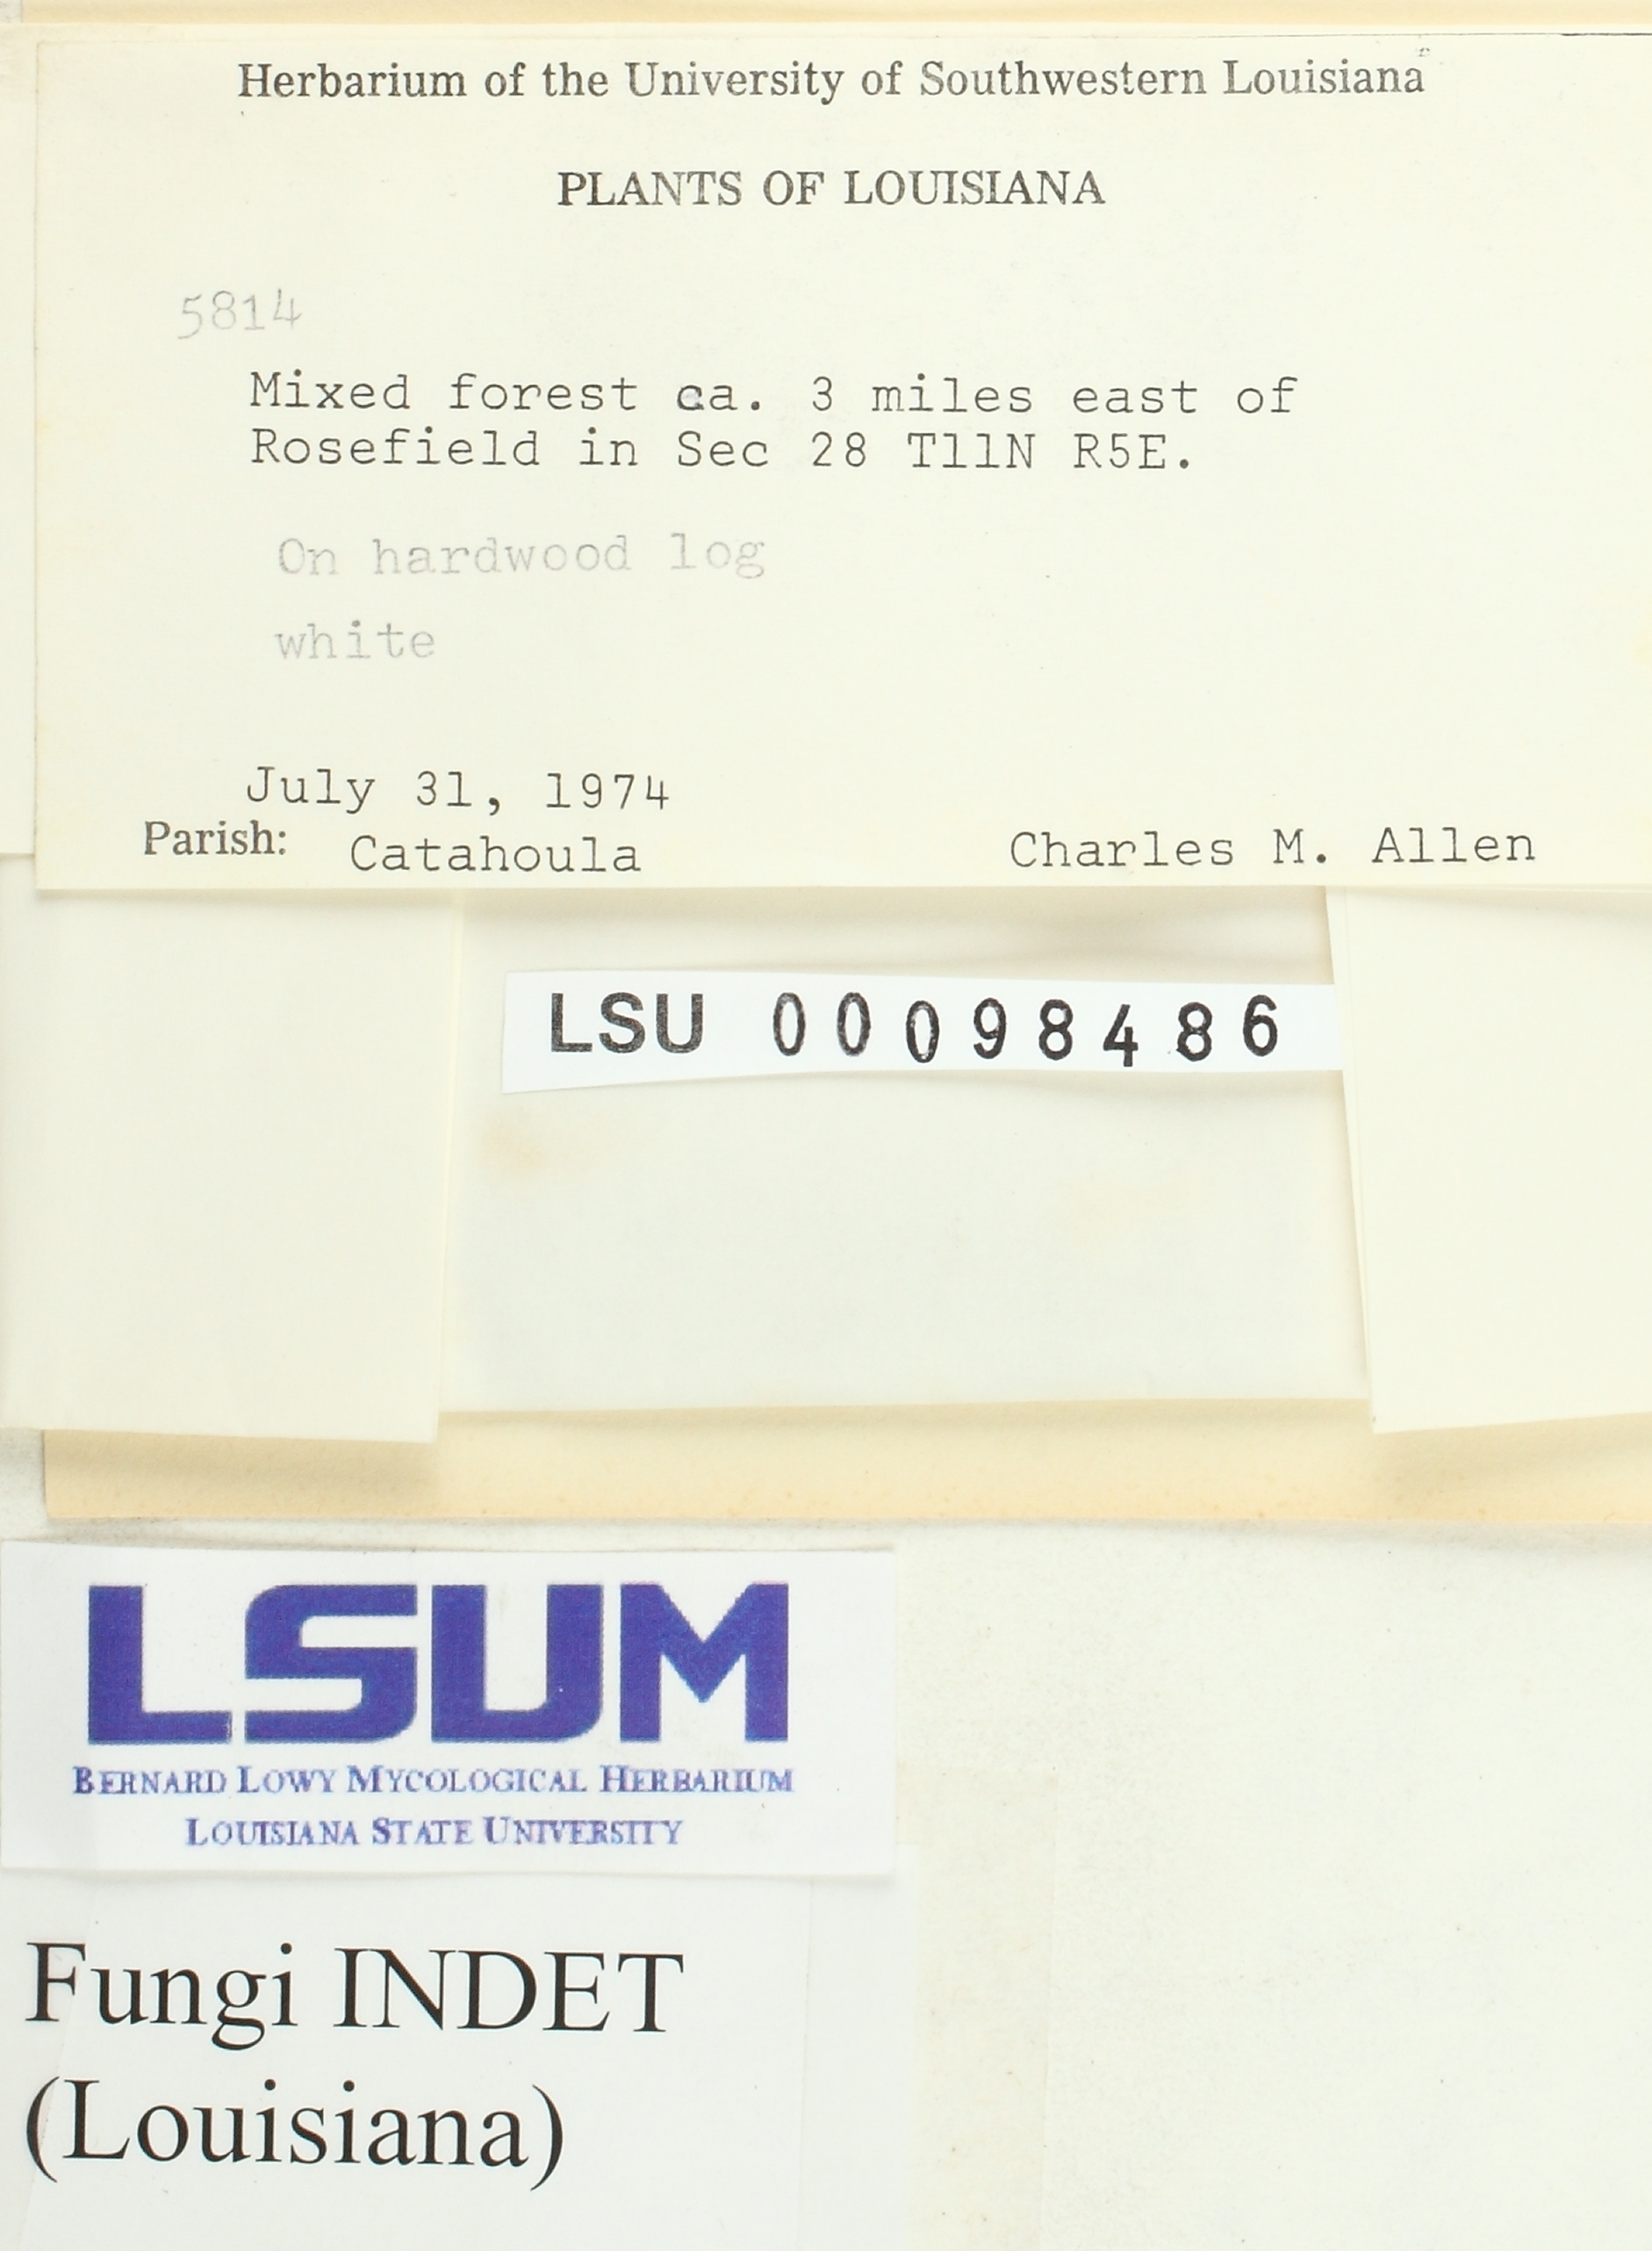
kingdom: Fungi
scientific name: Fungi
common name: Fungi
